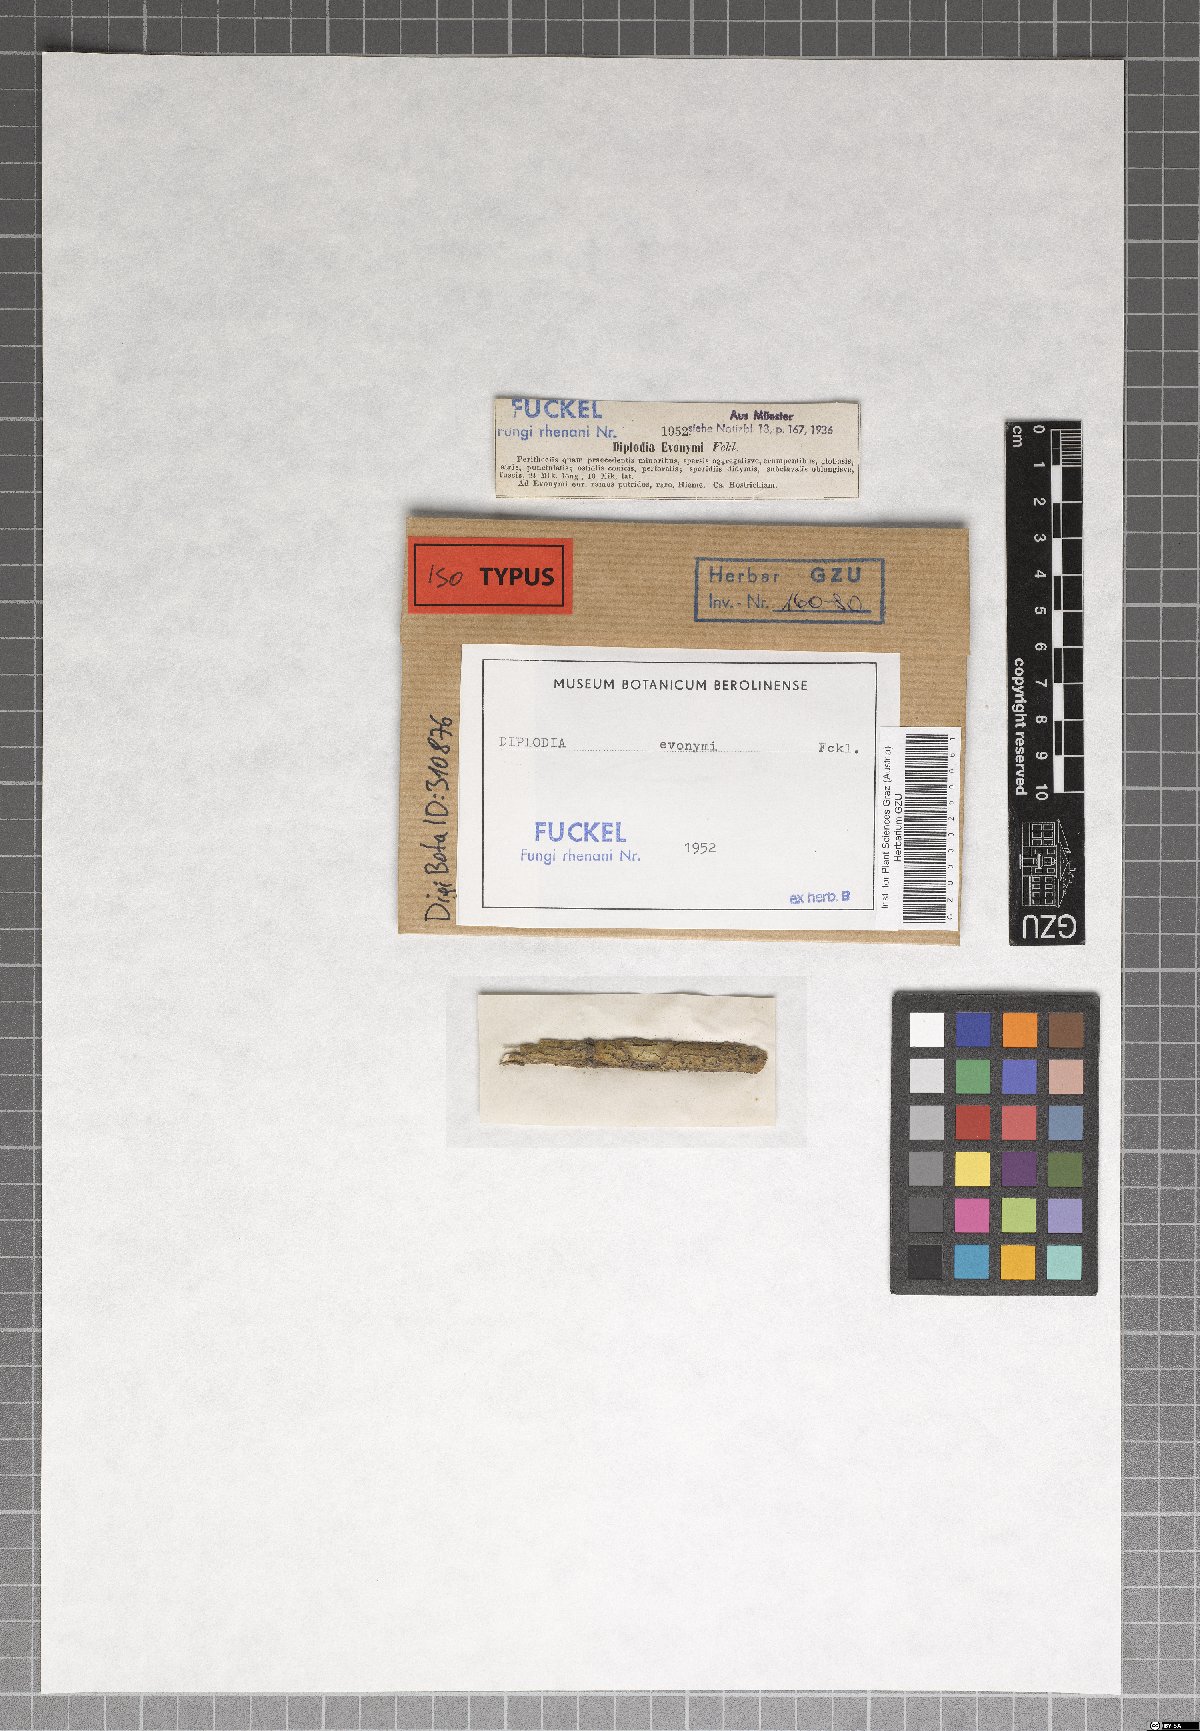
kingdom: Fungi
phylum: Ascomycota
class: Dothideomycetes
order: Botryosphaeriales
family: Botryosphaeriaceae
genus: Diplodia
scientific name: Diplodia evonymi
